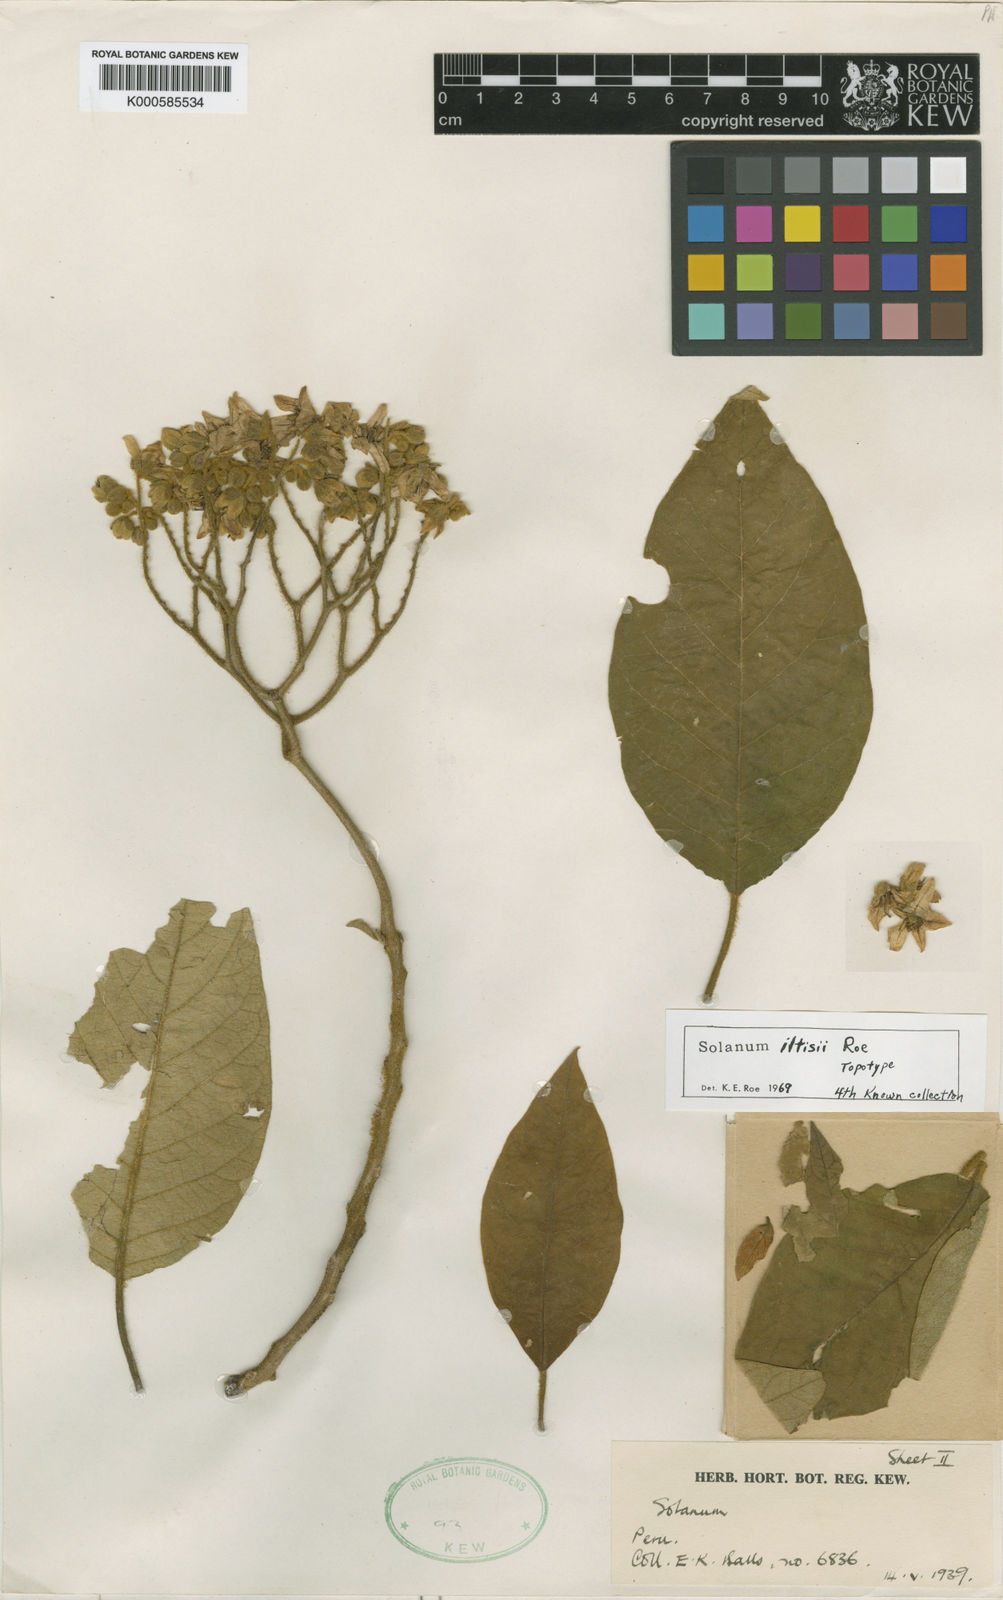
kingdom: Plantae
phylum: Tracheophyta
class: Magnoliopsida
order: Solanales
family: Solanaceae
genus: Solanum
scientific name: Solanum iltisii
